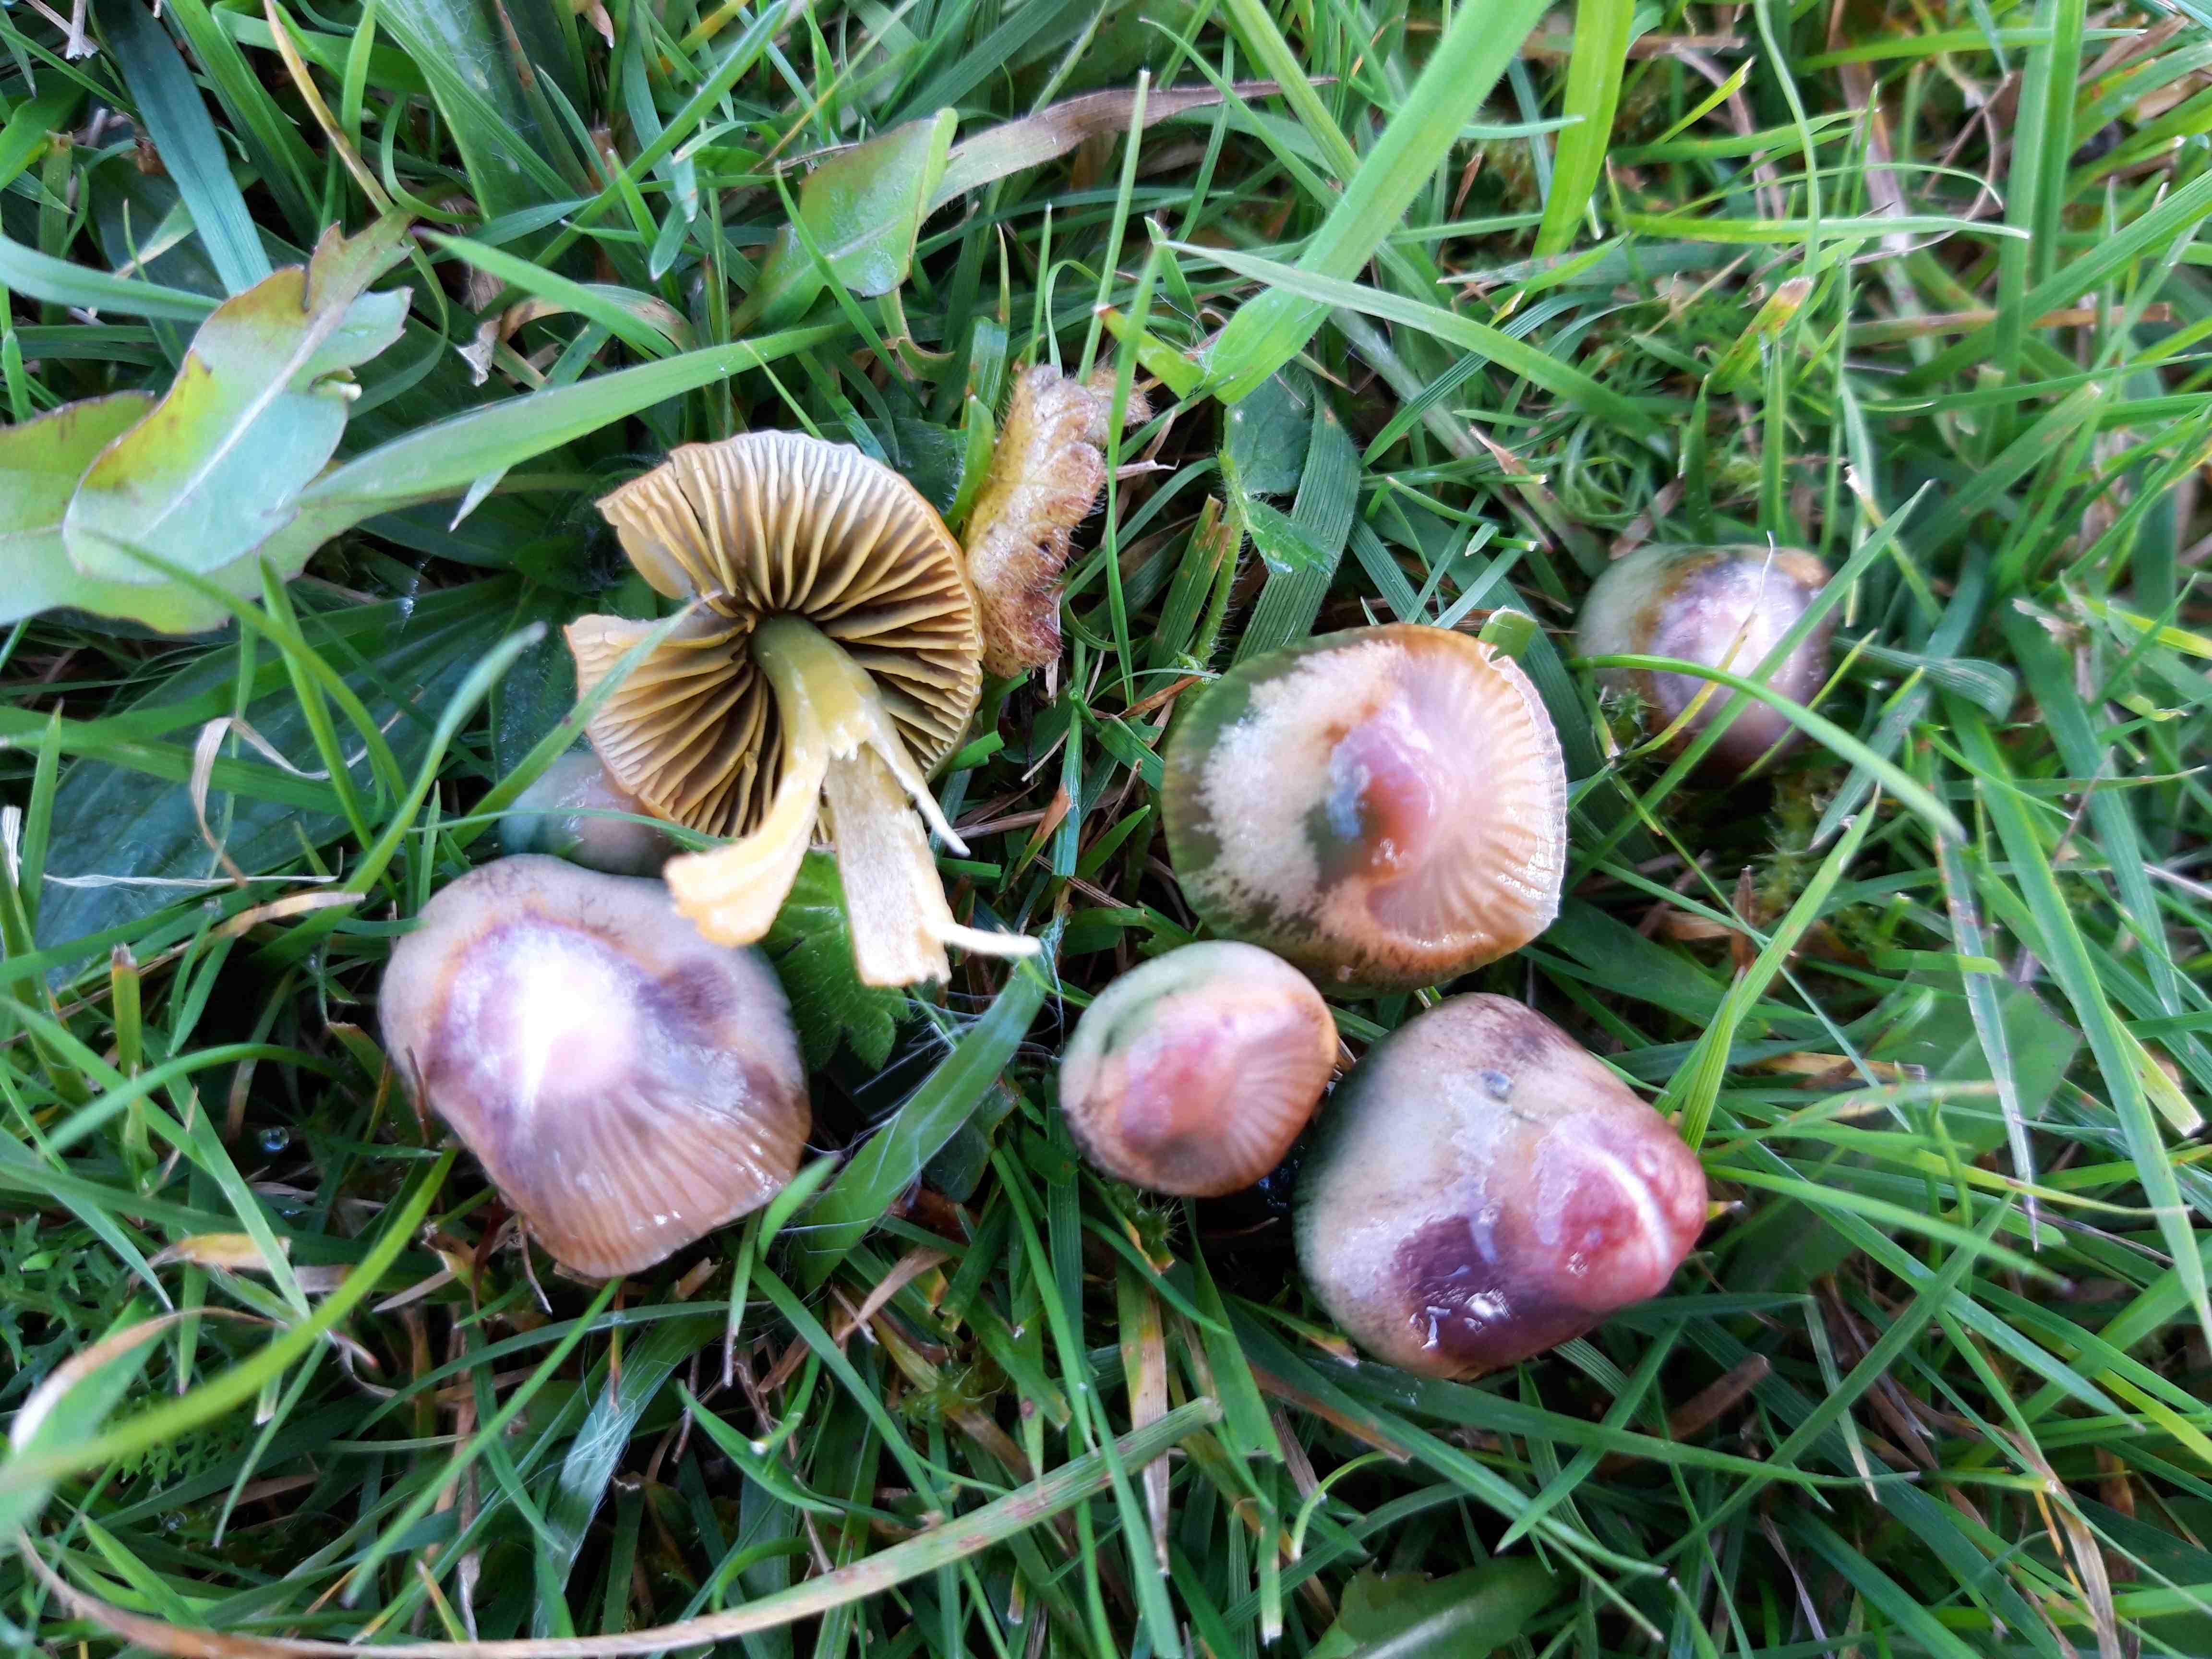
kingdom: Fungi
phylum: Basidiomycota
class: Agaricomycetes
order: Agaricales
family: Hygrophoraceae
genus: Gliophorus
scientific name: Gliophorus psittacinus
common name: papegøje-vokshat
